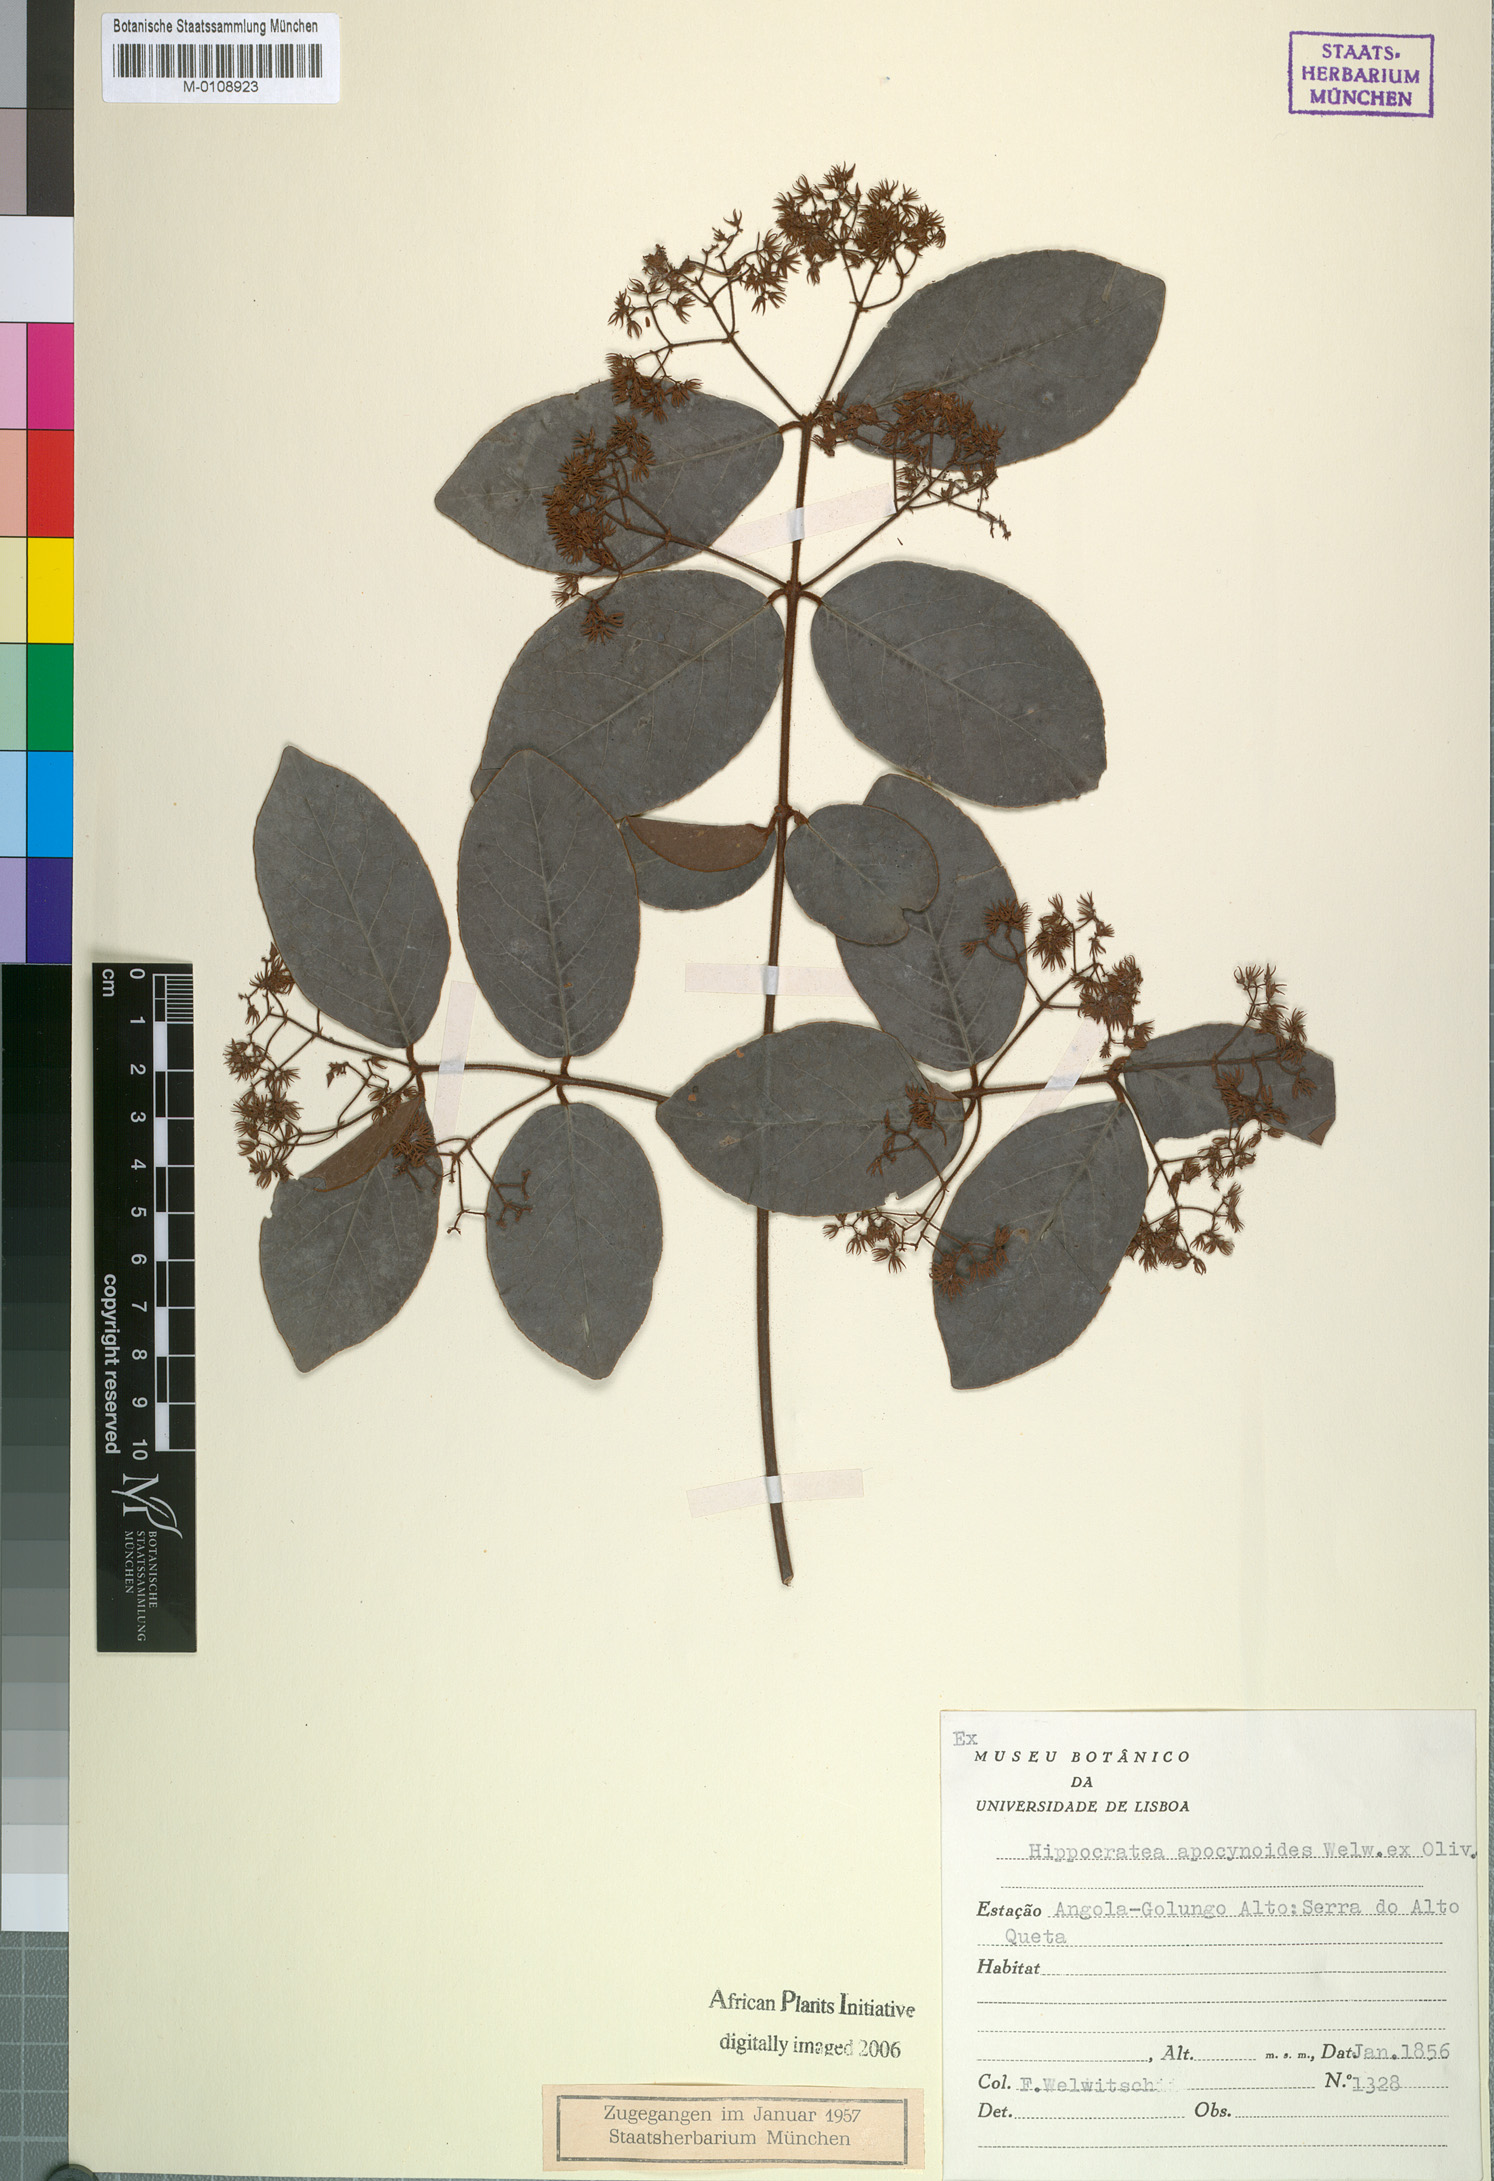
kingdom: Plantae
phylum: Tracheophyta
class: Magnoliopsida
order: Celastrales
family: Celastraceae
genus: Loeseneriella
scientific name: Loeseneriella apocynoides
